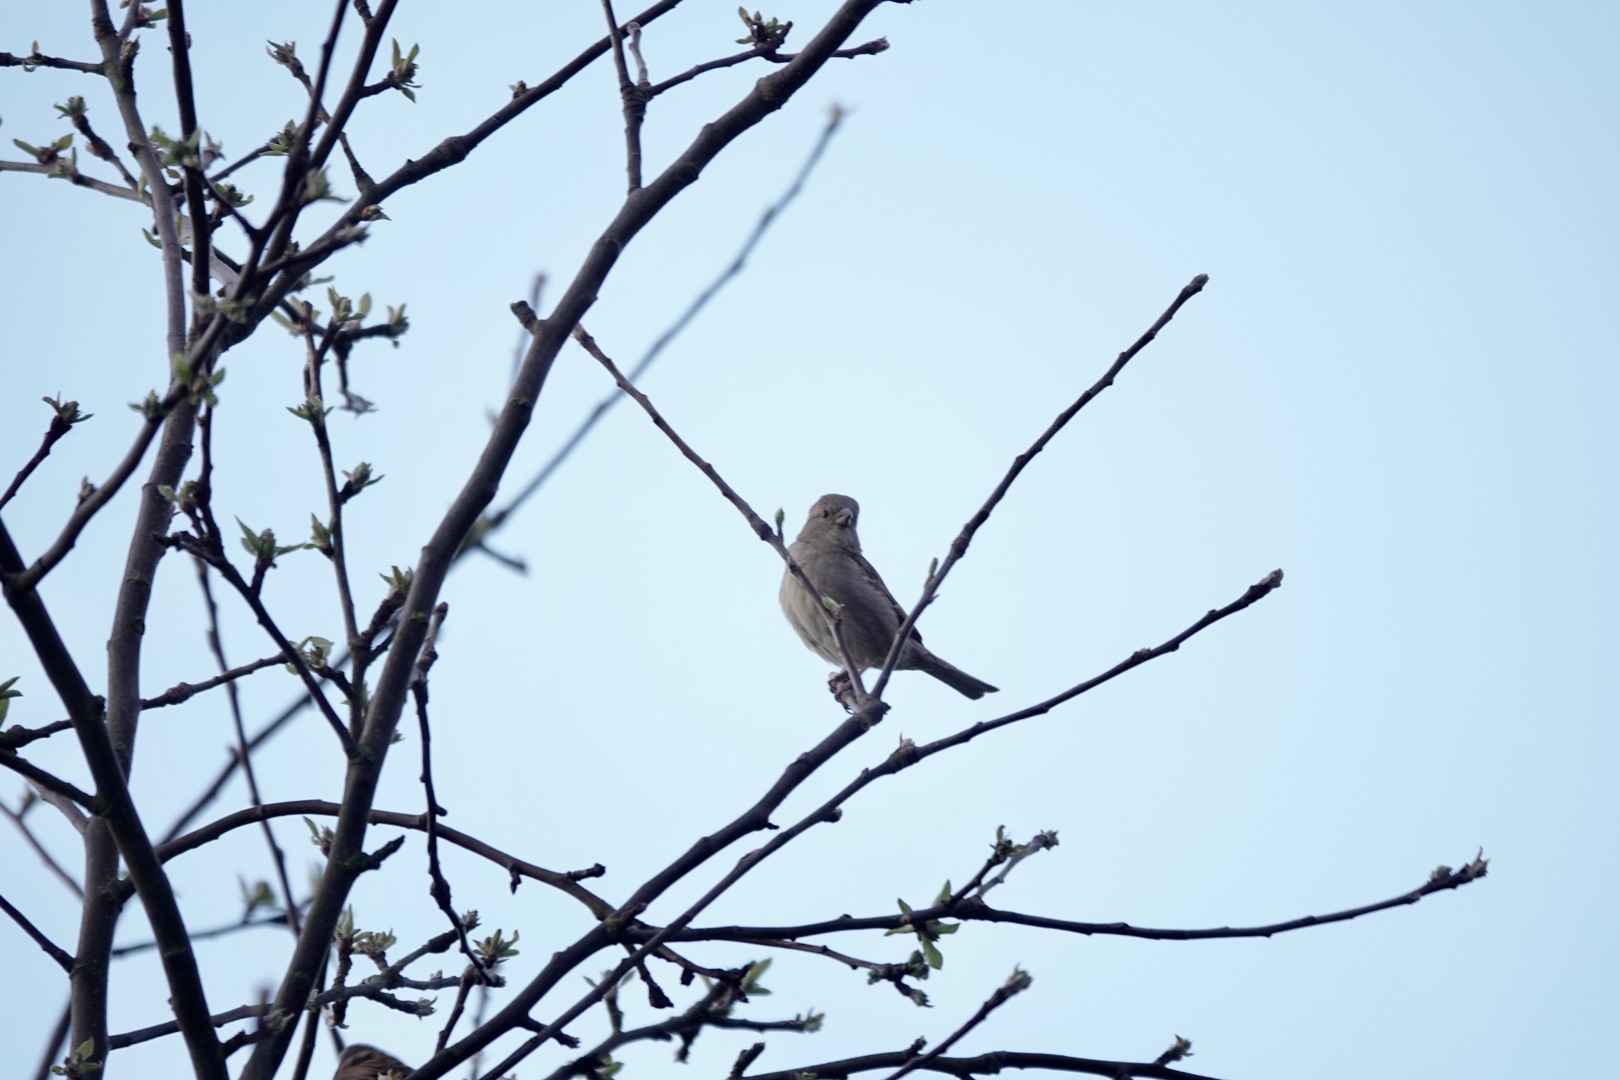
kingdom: Animalia
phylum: Chordata
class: Aves
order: Passeriformes
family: Passeridae
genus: Passer
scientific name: Passer domesticus
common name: Gråspurv
